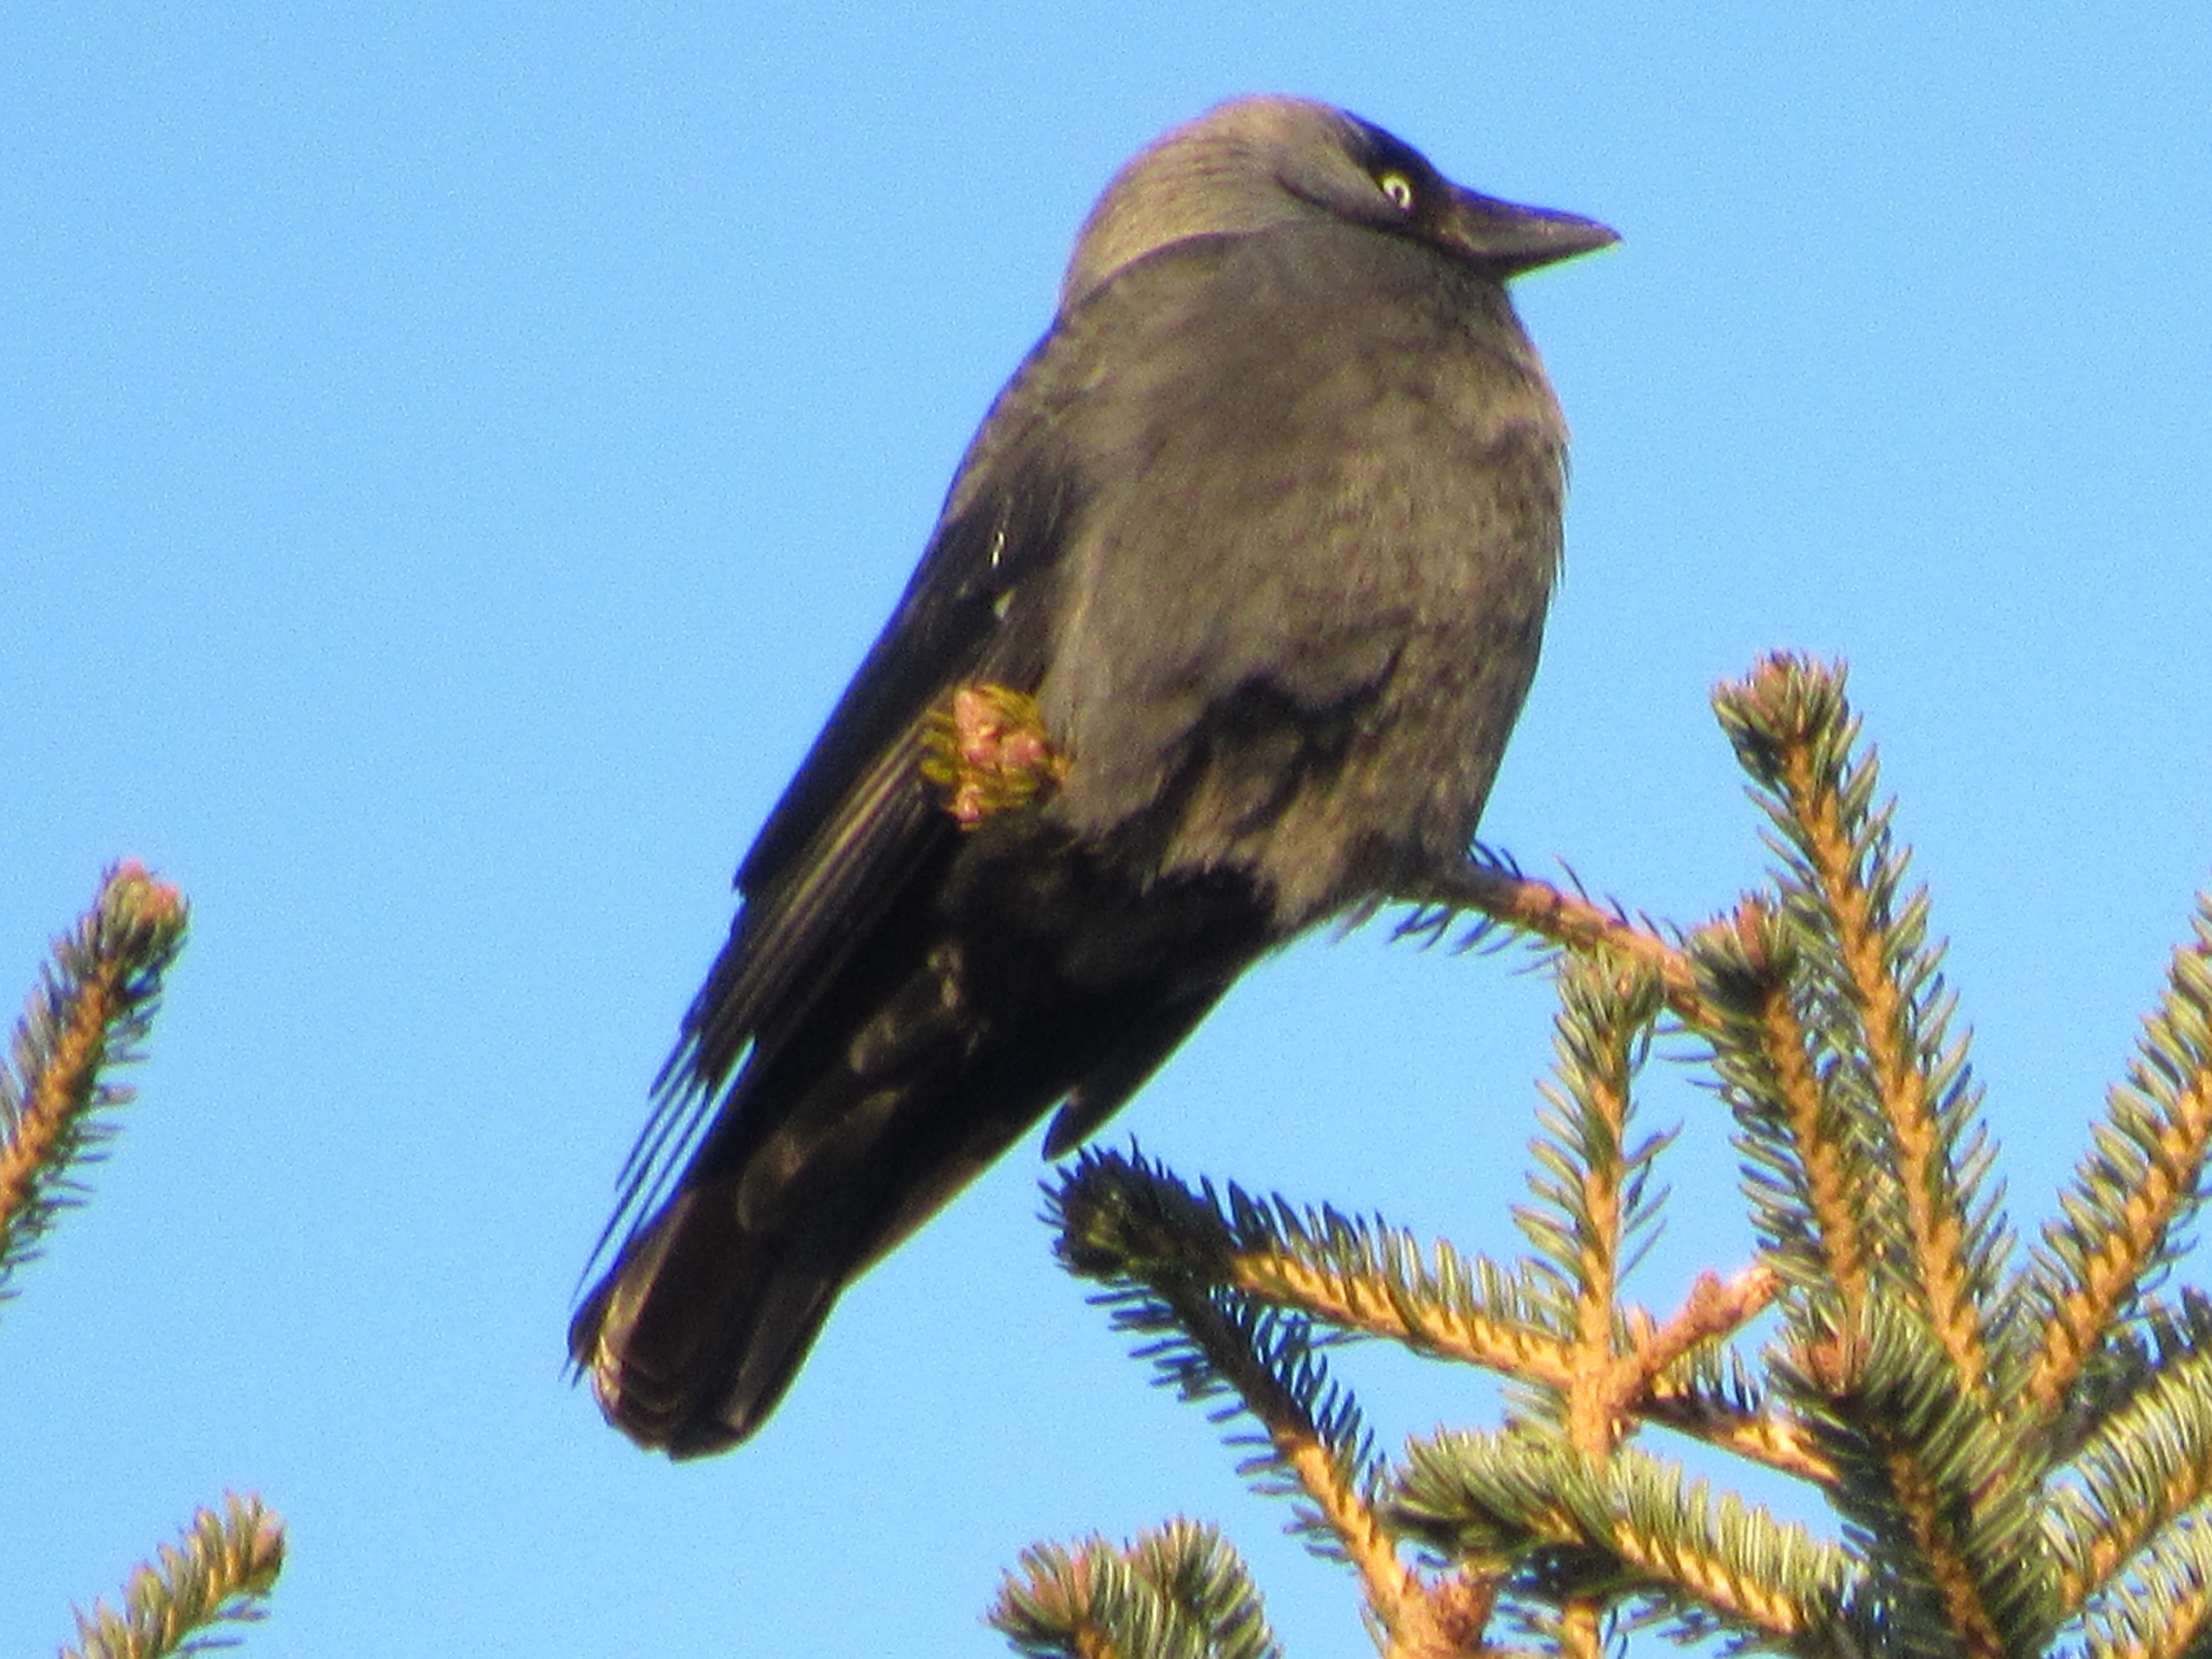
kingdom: Animalia
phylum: Chordata
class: Aves
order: Passeriformes
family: Corvidae
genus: Coloeus
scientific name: Coloeus monedula
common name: Allike
